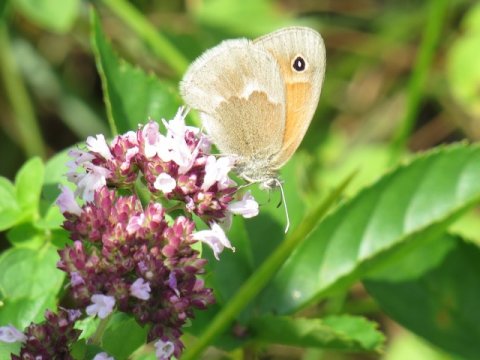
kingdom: Animalia
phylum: Arthropoda
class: Insecta
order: Lepidoptera
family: Nymphalidae
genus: Coenonympha
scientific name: Coenonympha tullia
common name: Large Heath
